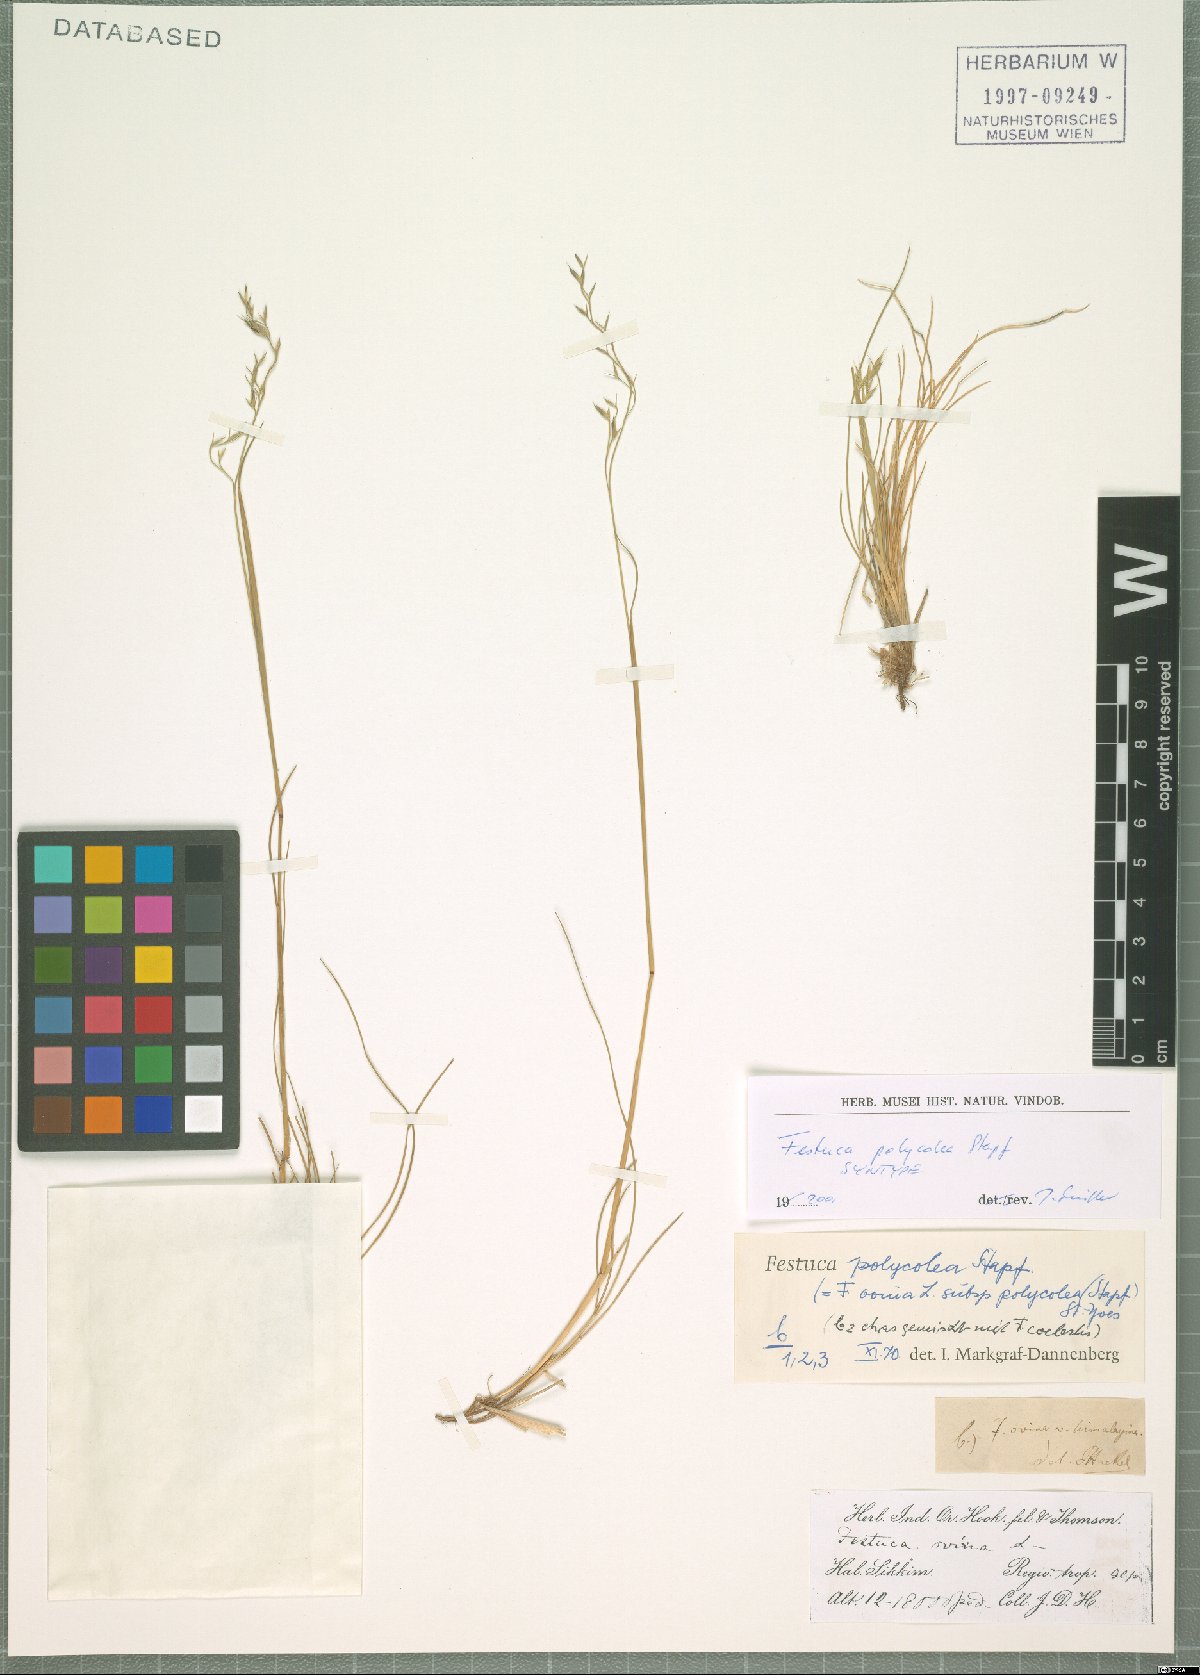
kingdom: Plantae
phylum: Tracheophyta
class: Liliopsida
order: Poales
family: Poaceae
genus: Festuca
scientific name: Festuca polycolea
